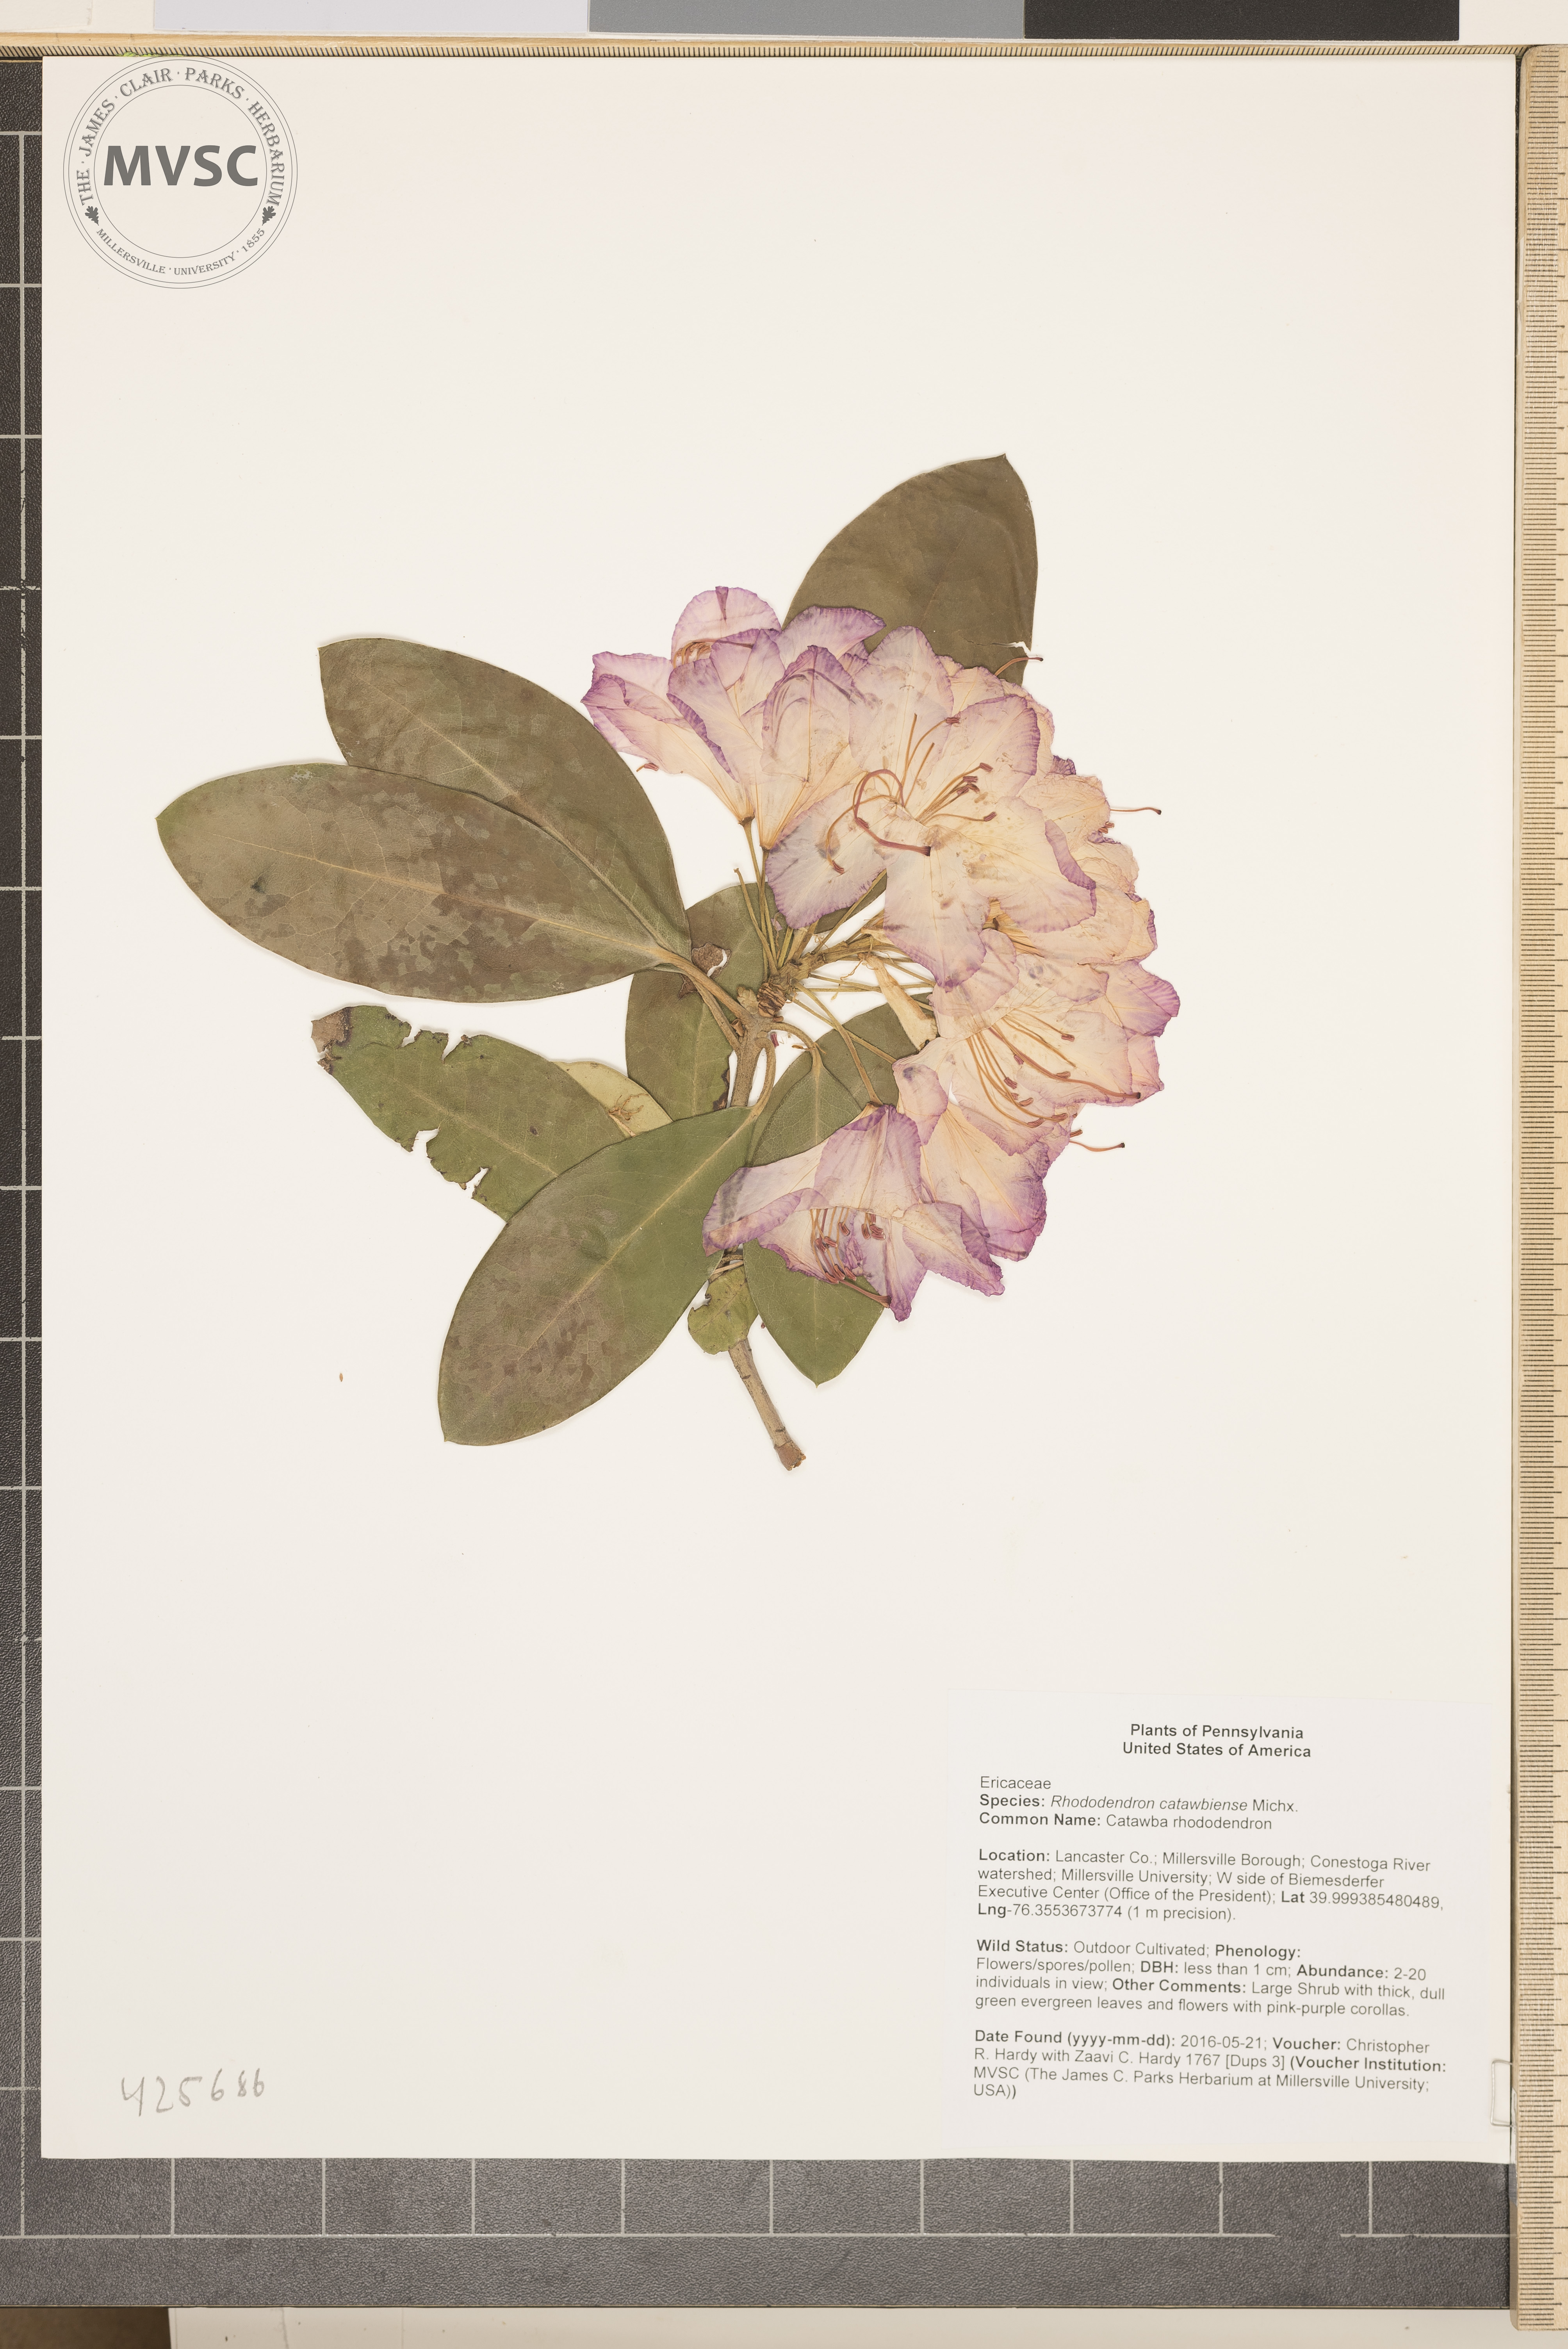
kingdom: Plantae
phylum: Tracheophyta
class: Magnoliopsida
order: Ericales
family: Ericaceae
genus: Rhododendron
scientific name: Rhododendron catawbiense
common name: Catawba rhododendron
